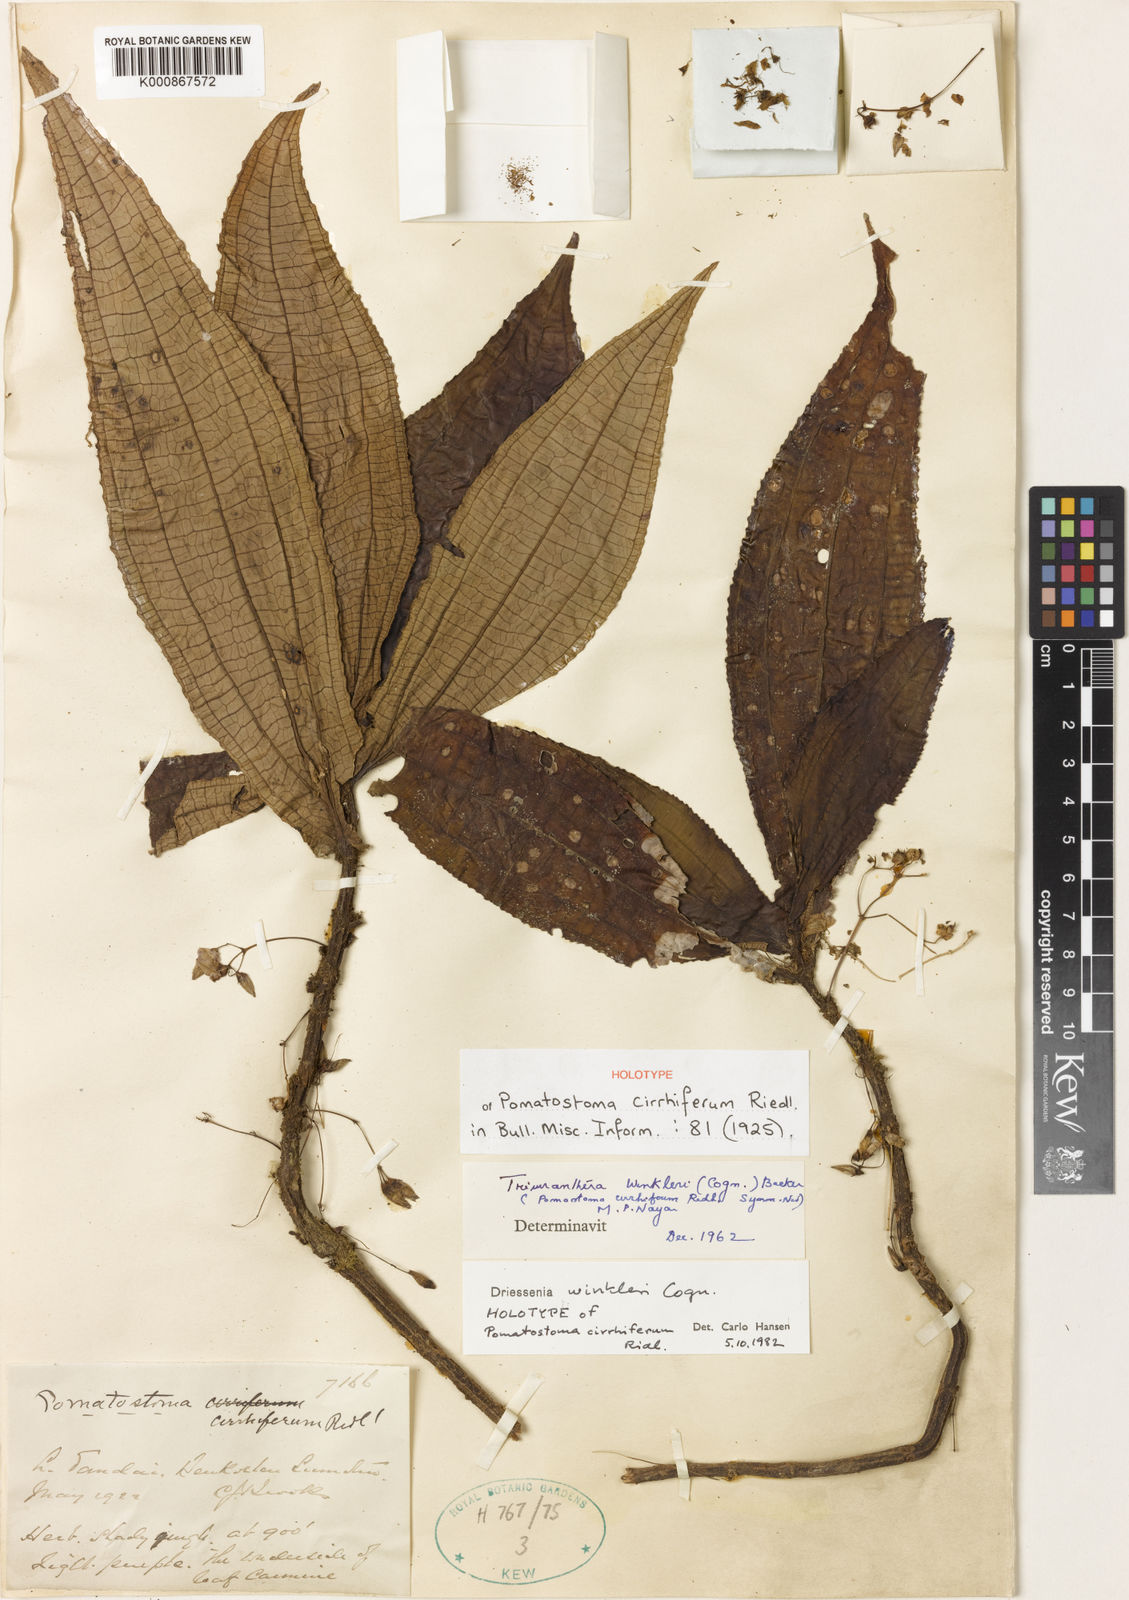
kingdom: Plantae
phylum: Tracheophyta
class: Magnoliopsida
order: Myrtales
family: Melastomataceae
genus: Driessenia
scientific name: Driessenia winkleri
